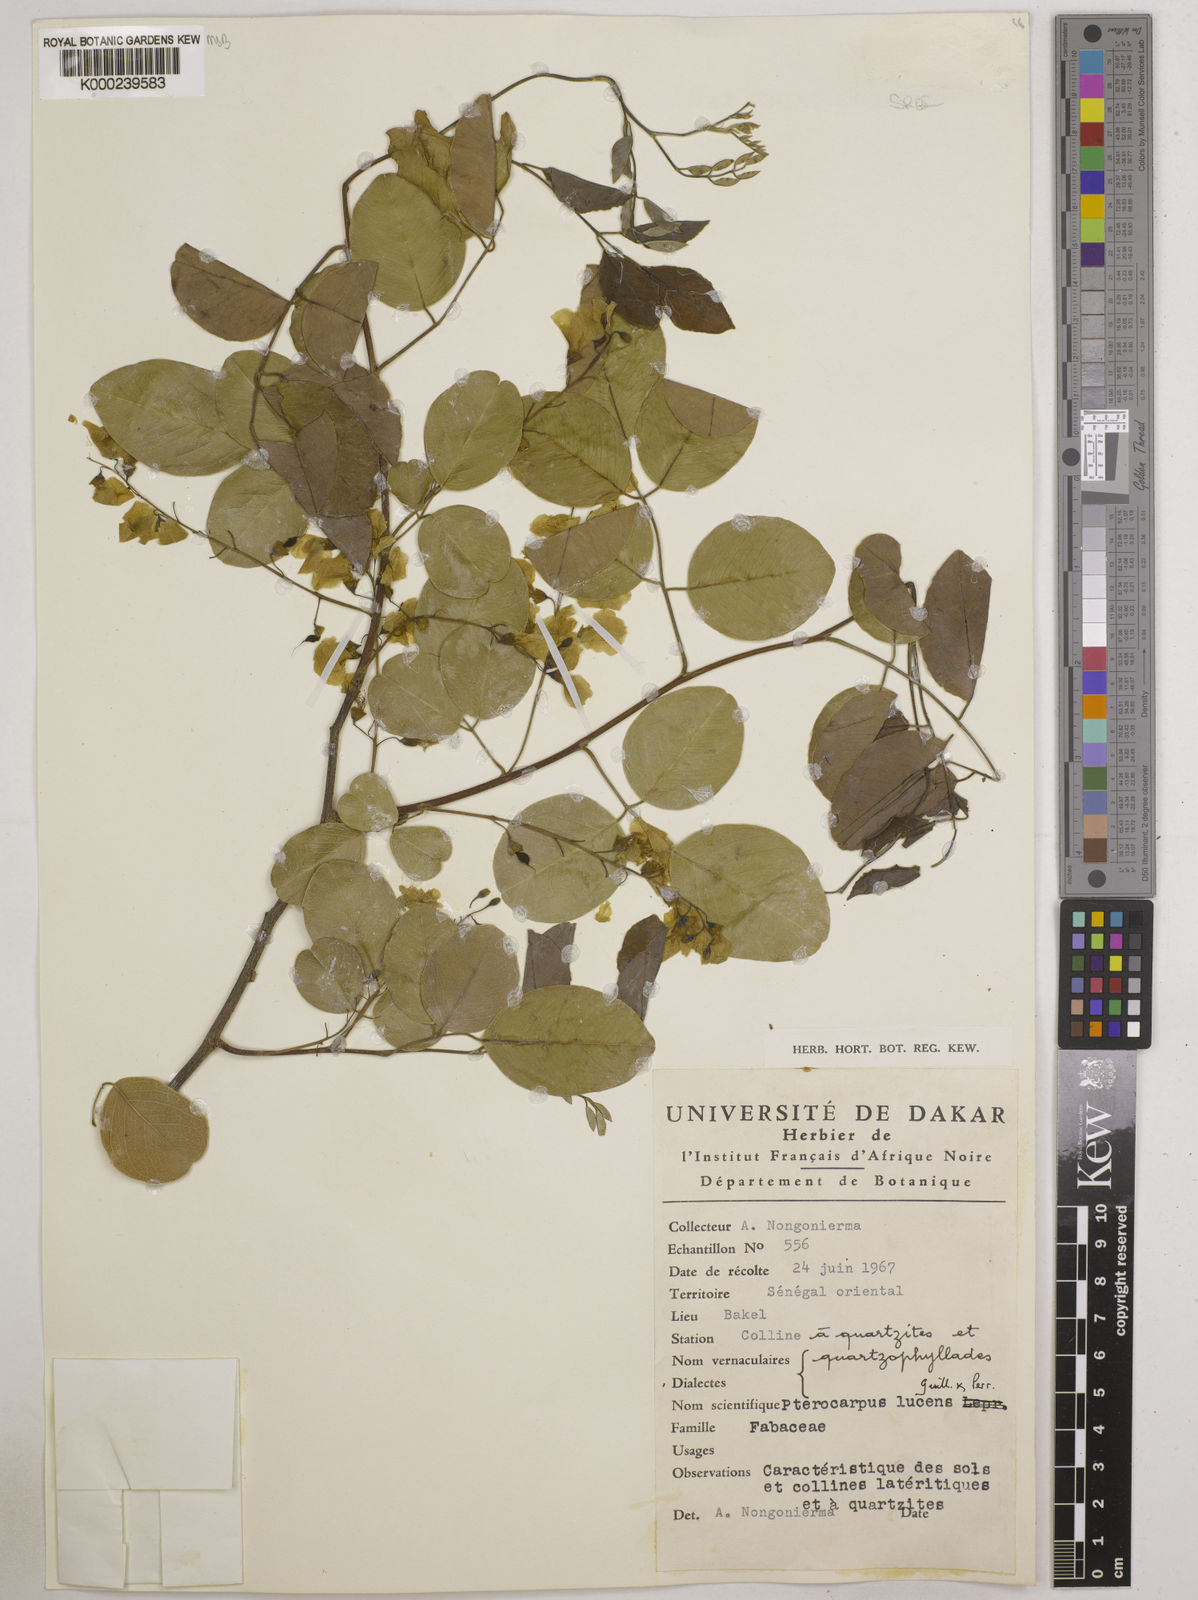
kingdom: Plantae
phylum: Tracheophyta
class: Magnoliopsida
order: Fabales
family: Fabaceae
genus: Pterocarpus
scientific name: Pterocarpus lucens
